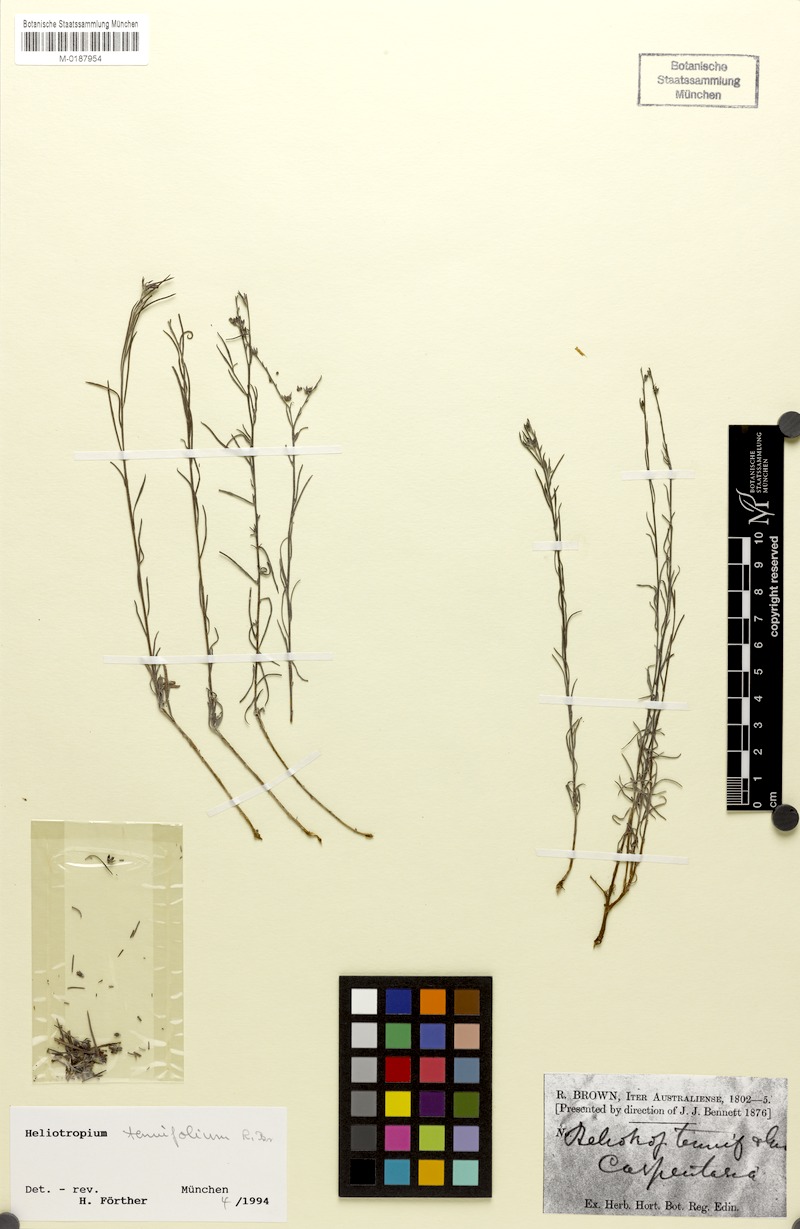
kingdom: Plantae
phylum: Tracheophyta
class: Magnoliopsida
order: Boraginales
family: Heliotropiaceae
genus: Euploca
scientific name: Euploca tenuifolia
